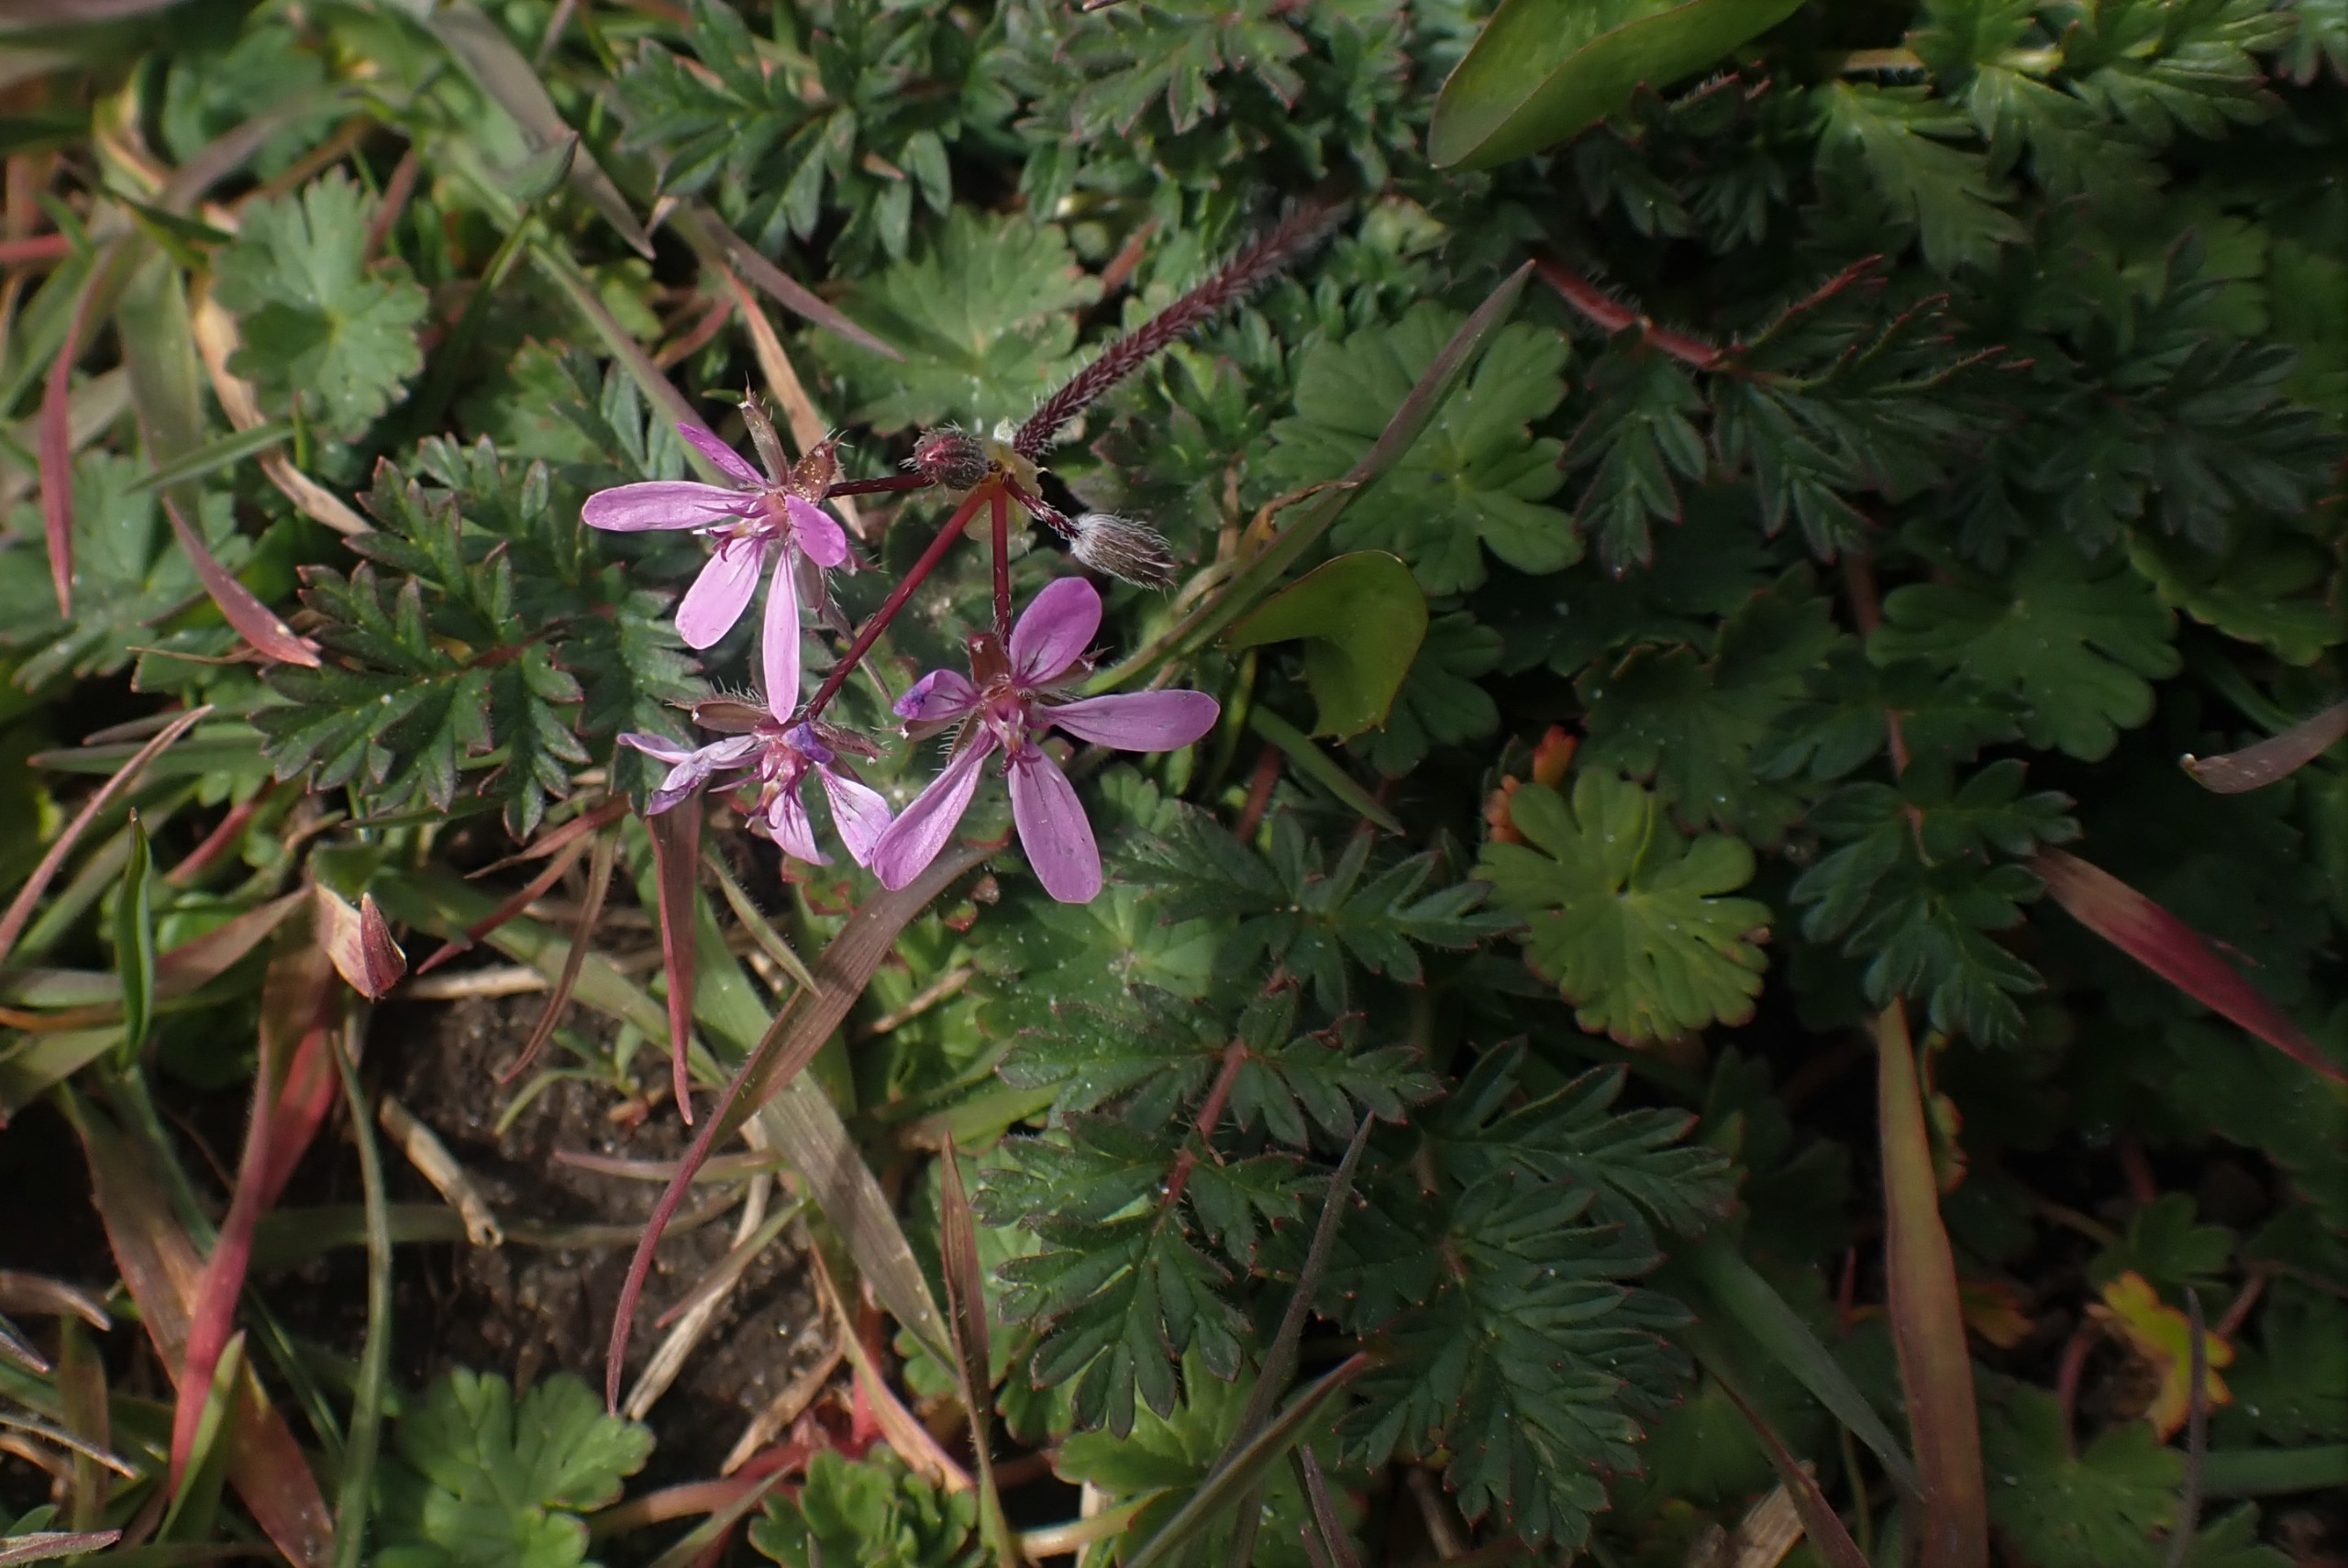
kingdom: Plantae
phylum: Tracheophyta
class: Magnoliopsida
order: Geraniales
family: Geraniaceae
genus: Erodium
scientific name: Erodium cicutarium
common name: Hejrenæb
